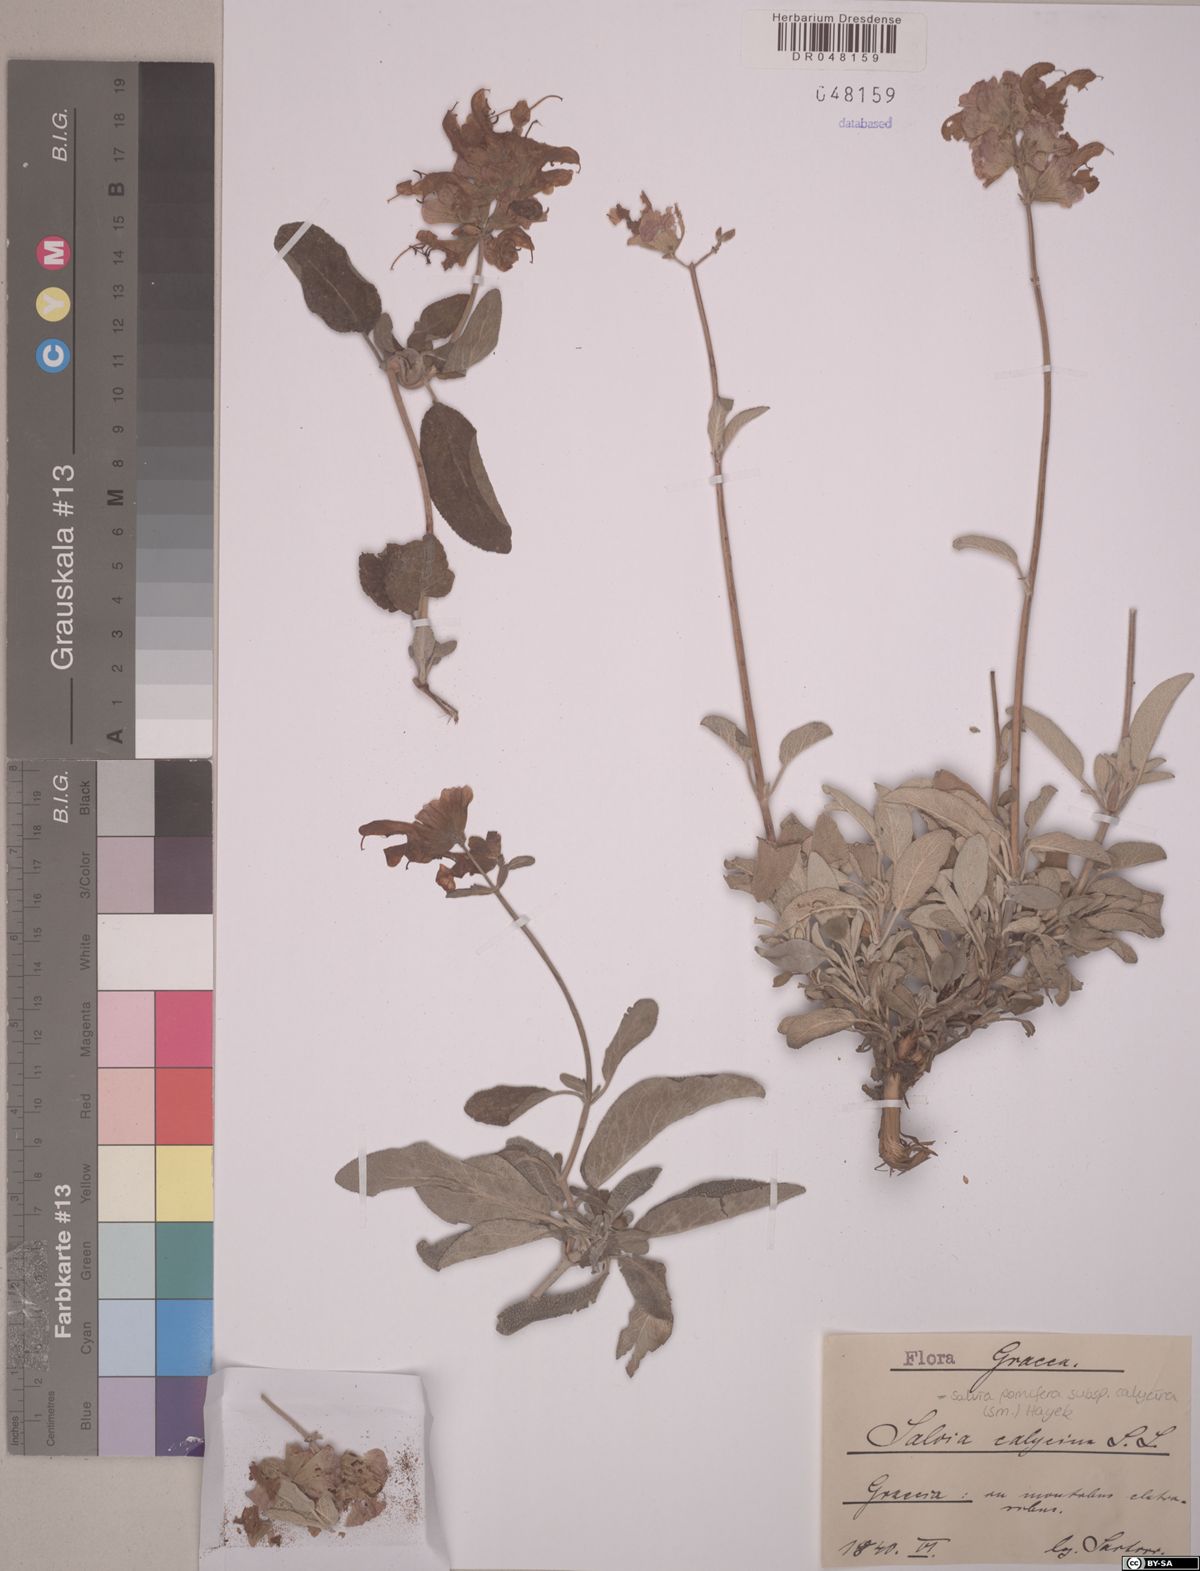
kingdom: Plantae
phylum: Tracheophyta
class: Magnoliopsida
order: Lamiales
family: Lamiaceae
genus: Salvia
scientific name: Salvia pomifera
